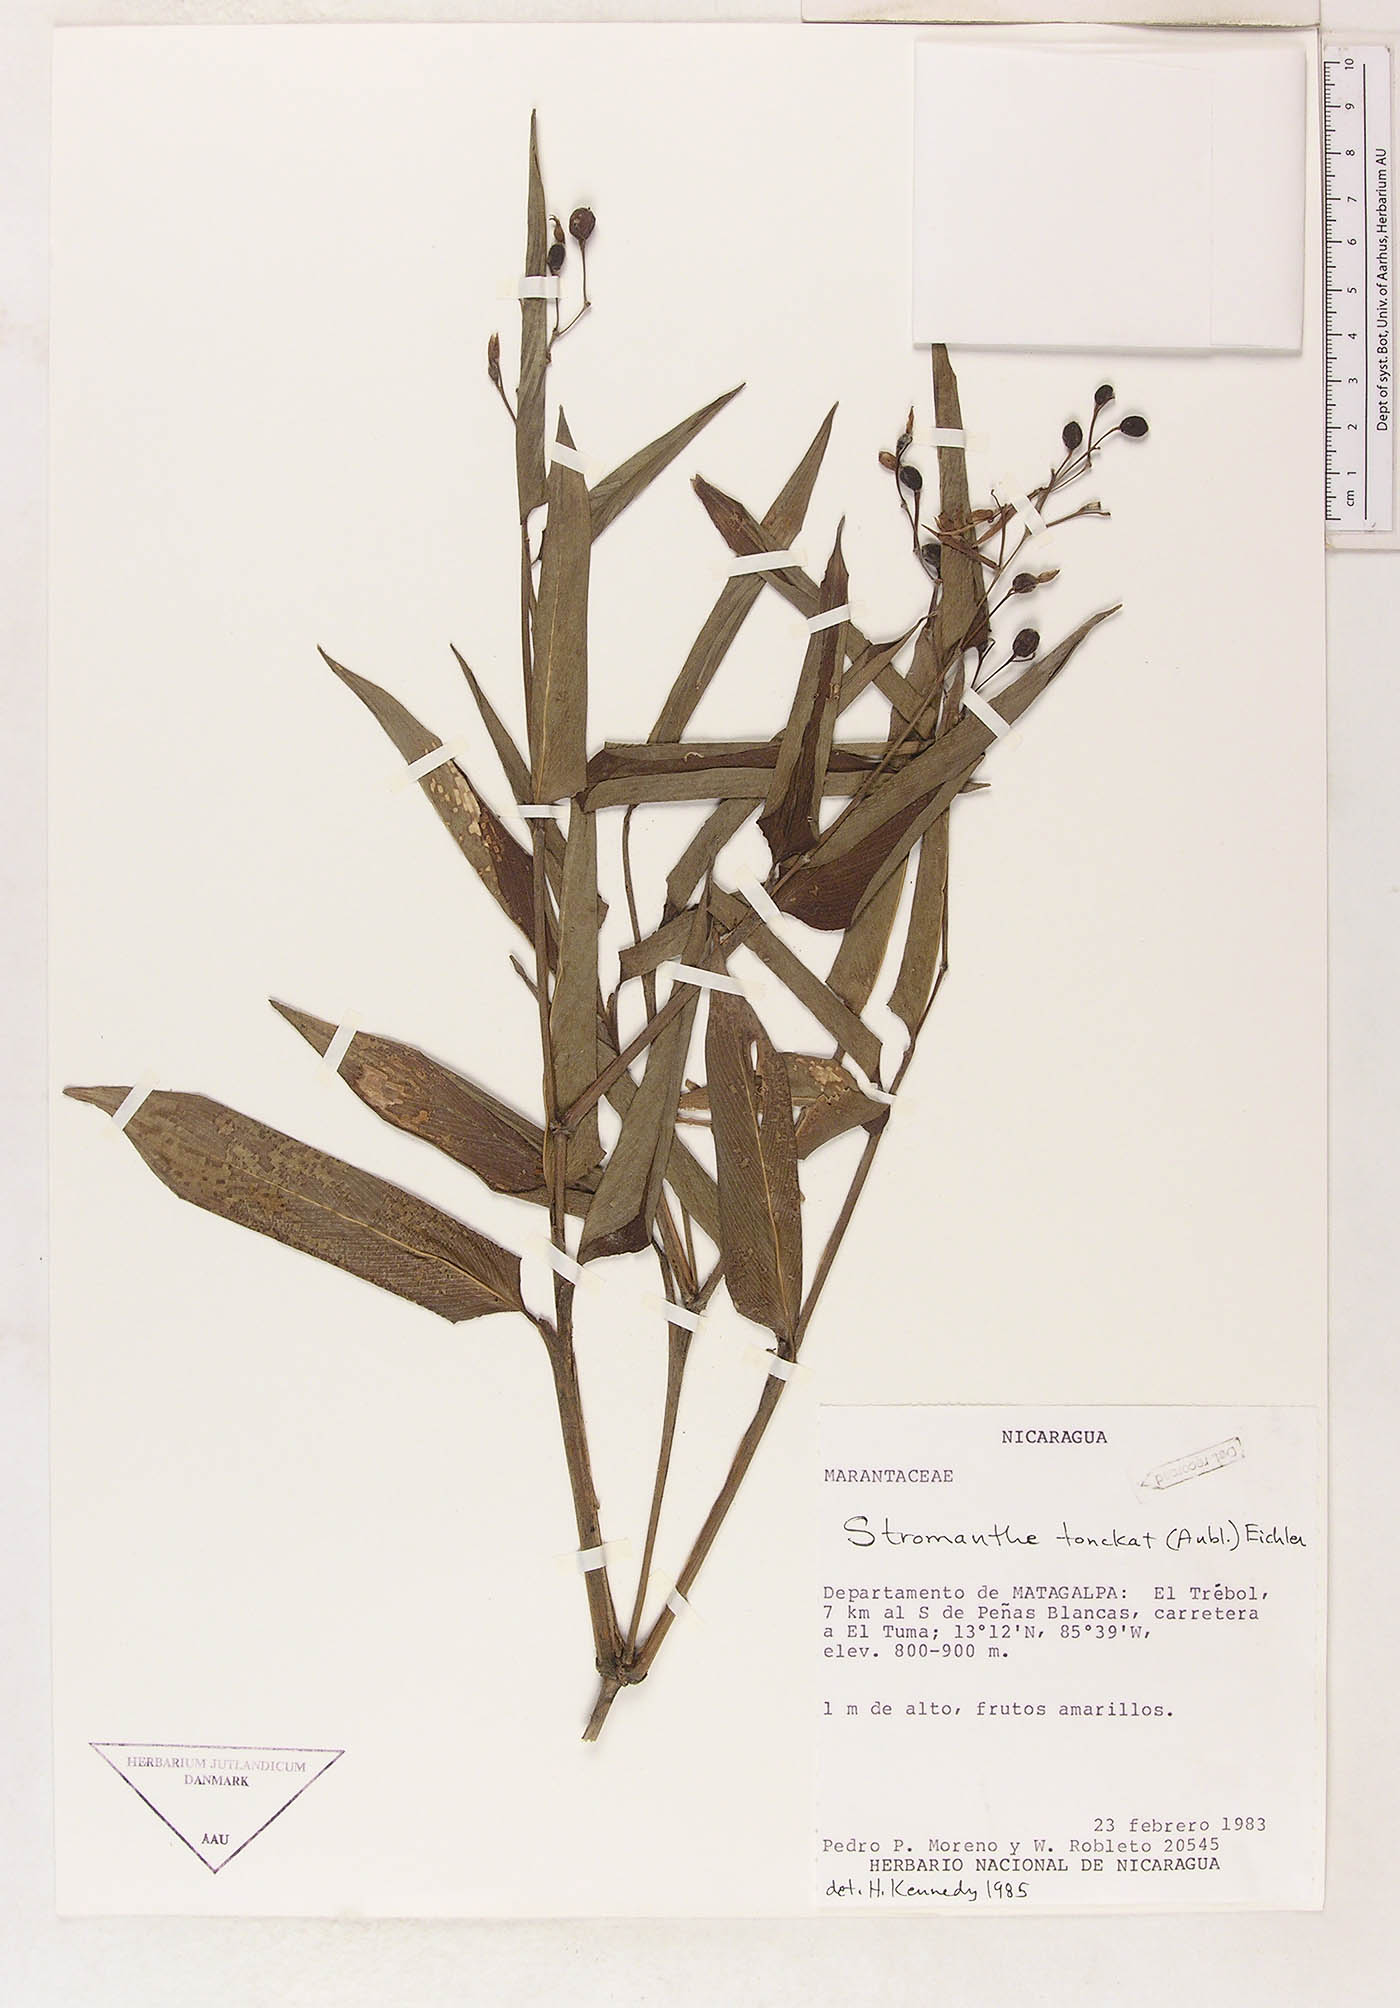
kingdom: Plantae
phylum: Tracheophyta
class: Liliopsida
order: Zingiberales
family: Marantaceae
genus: Stromanthe
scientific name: Stromanthe tonckat
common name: Stromanthe
